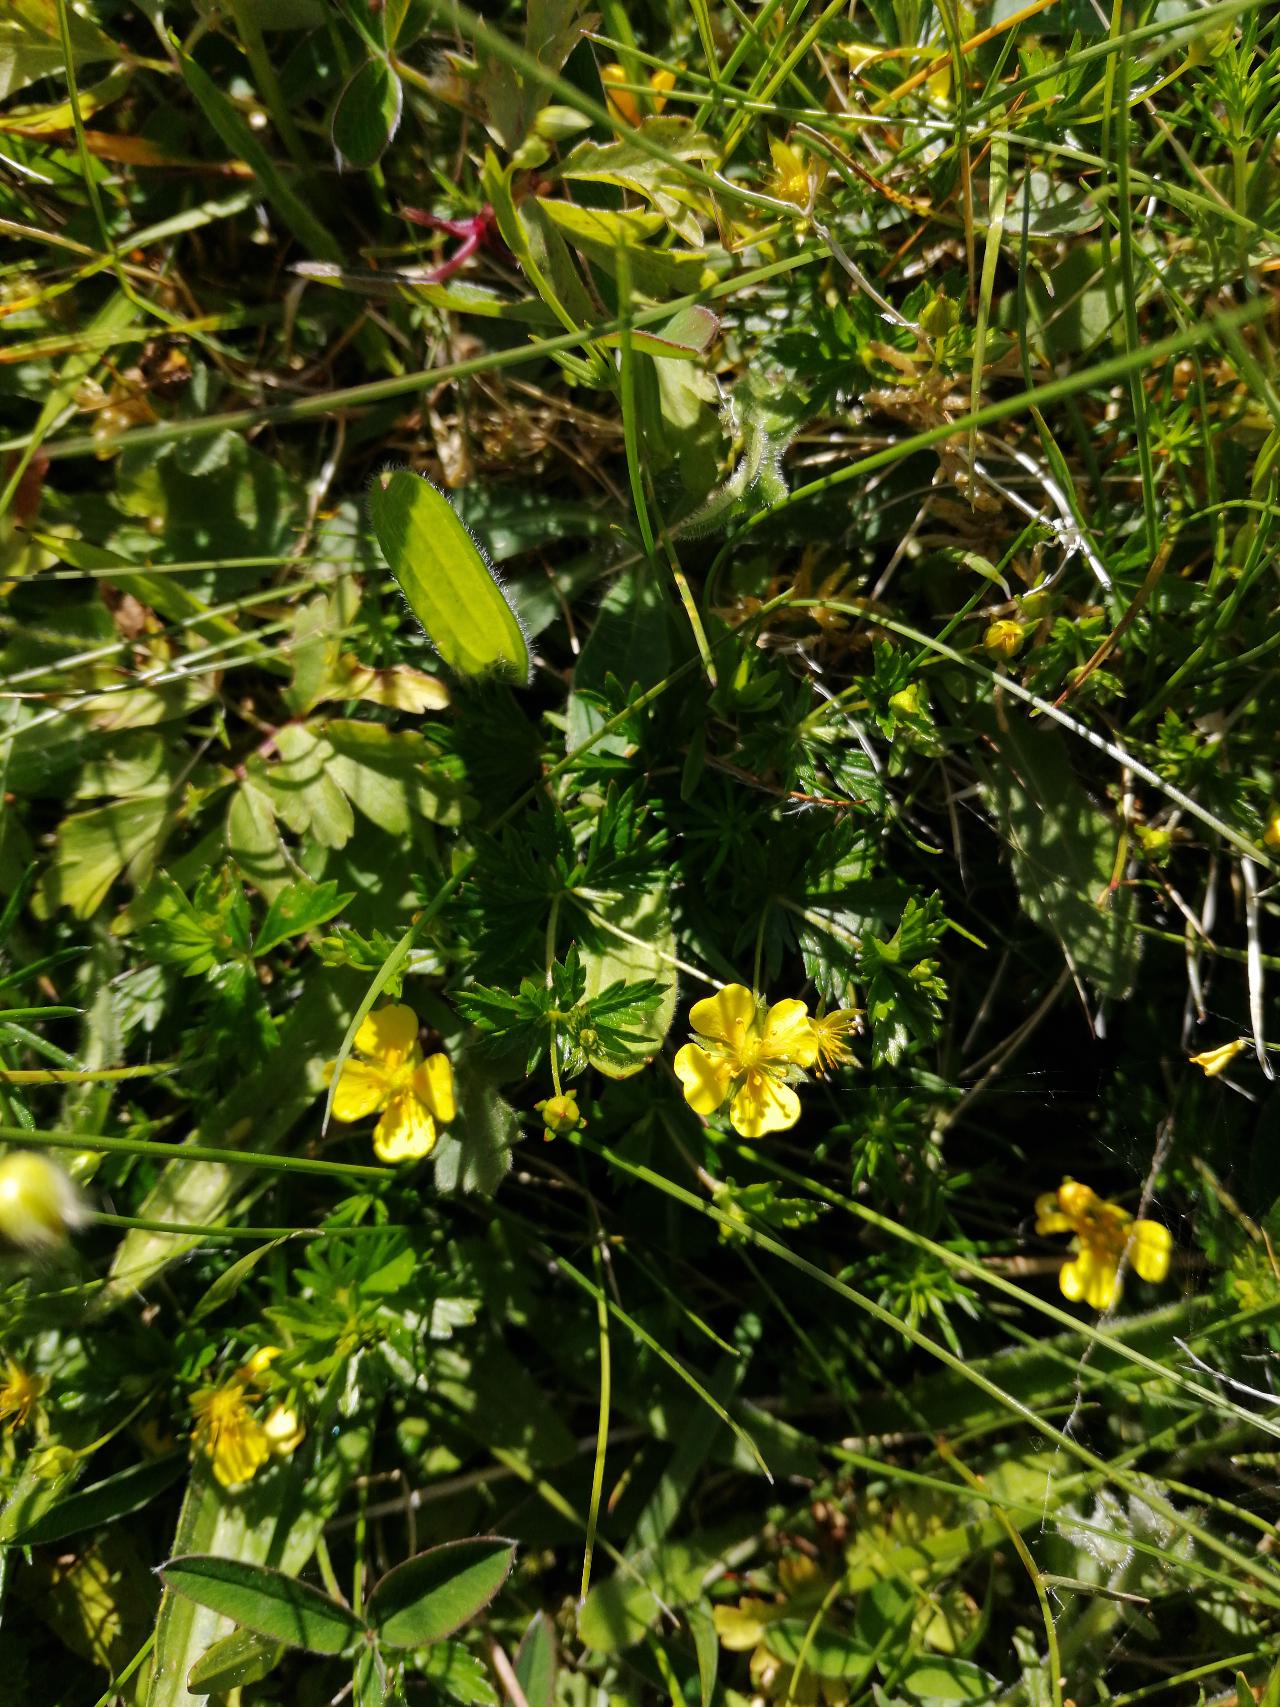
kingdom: Plantae
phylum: Tracheophyta
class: Magnoliopsida
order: Rosales
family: Rosaceae
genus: Potentilla
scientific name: Potentilla erecta
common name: Tormentil
